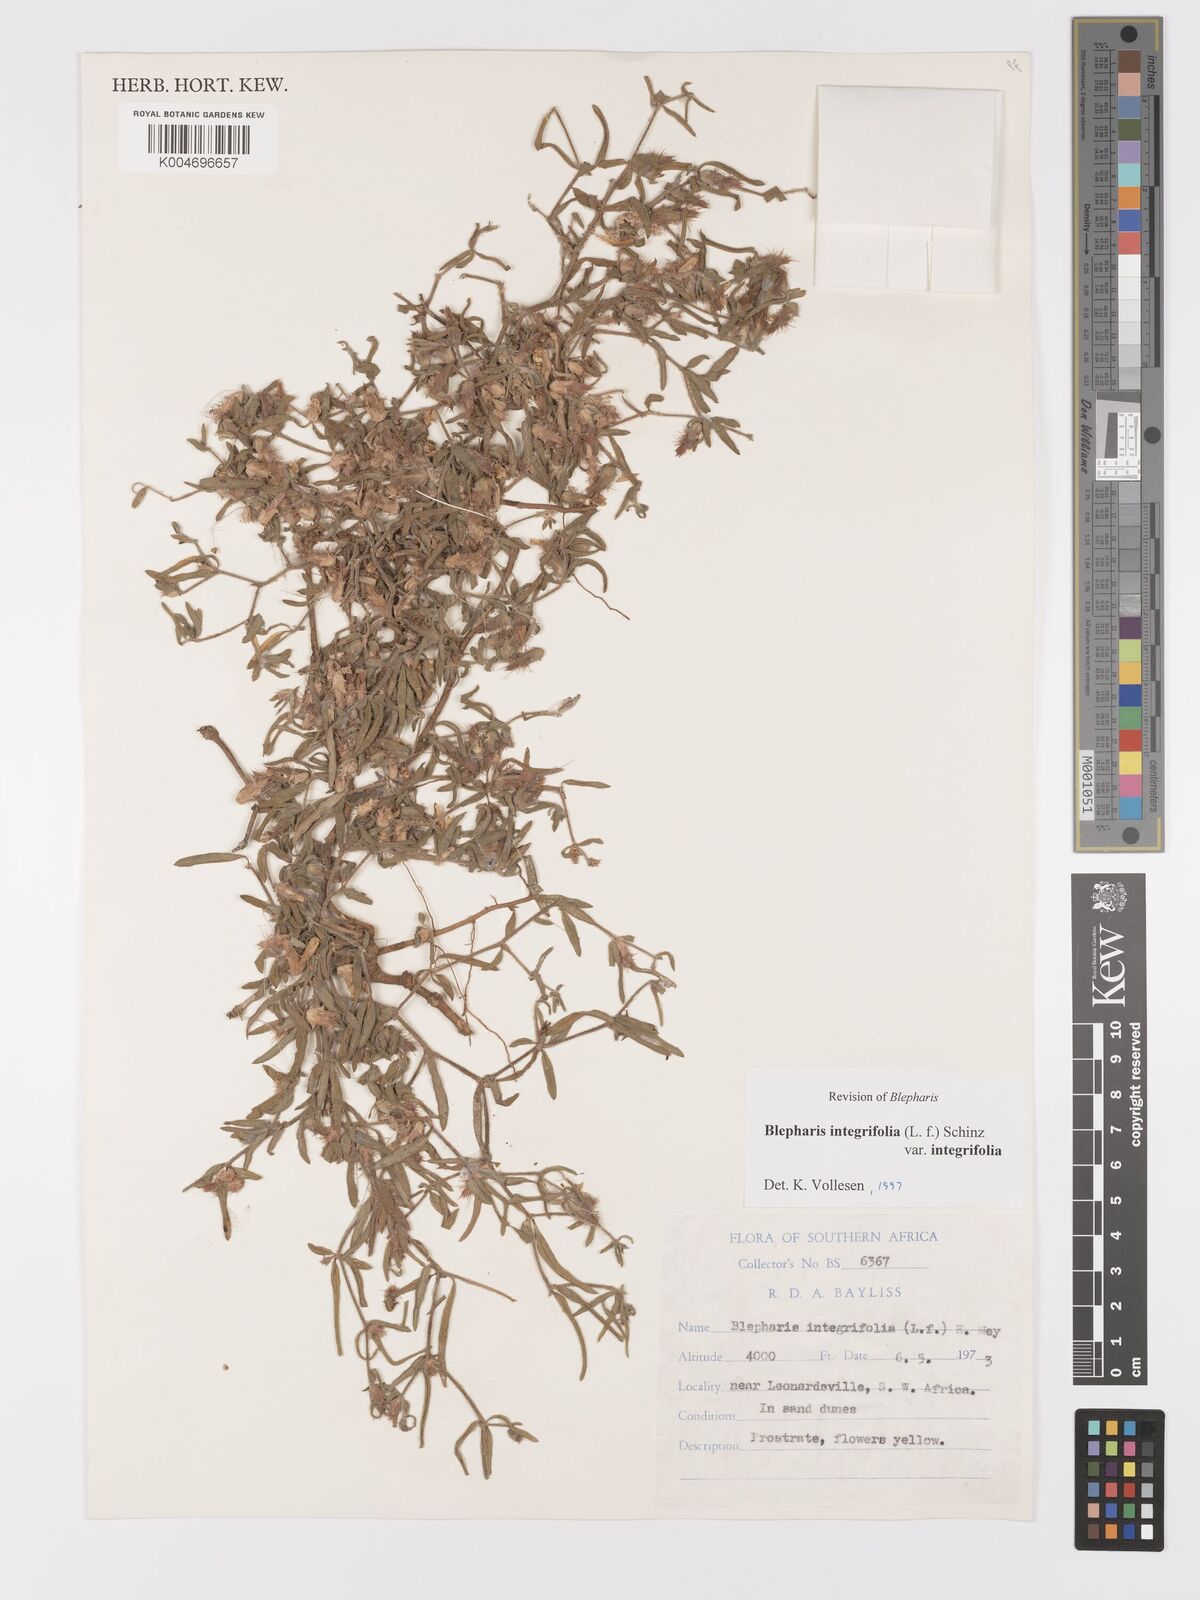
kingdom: Plantae
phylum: Tracheophyta
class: Magnoliopsida
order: Lamiales
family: Acanthaceae
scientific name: Acanthaceae
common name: Acanthaceae
